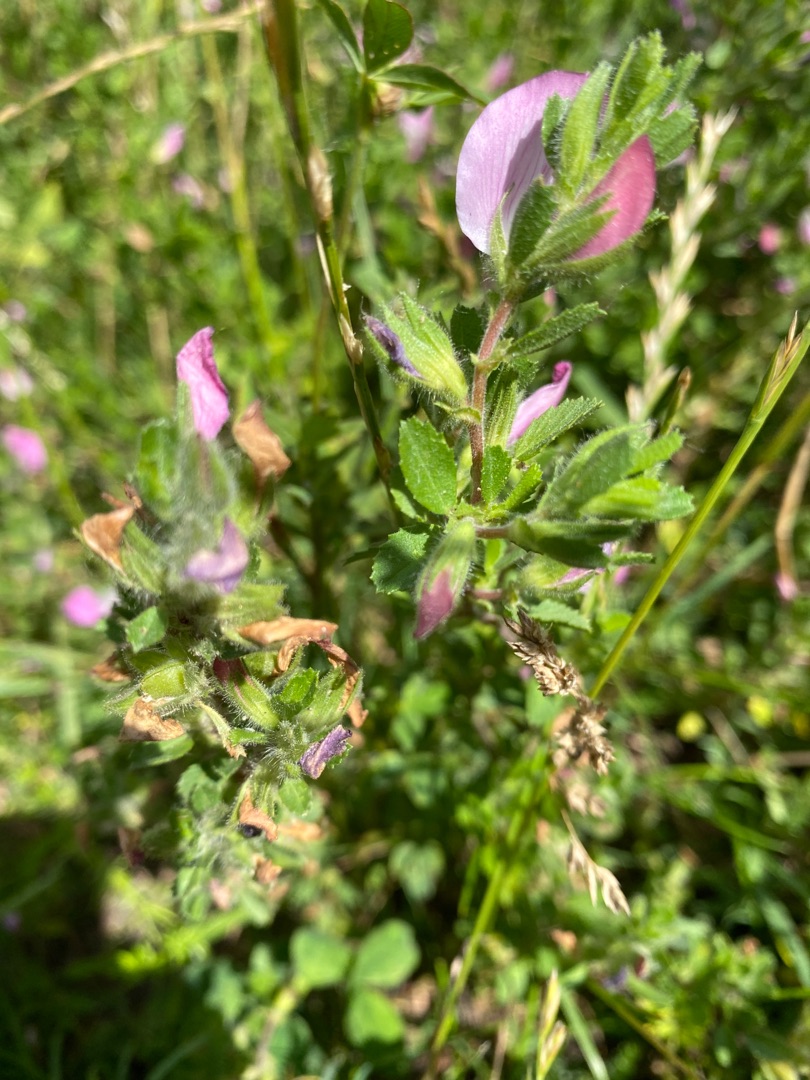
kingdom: Plantae
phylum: Tracheophyta
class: Magnoliopsida
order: Fabales
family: Fabaceae
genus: Ononis
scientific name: Ononis spinosa
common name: Mark-krageklo
